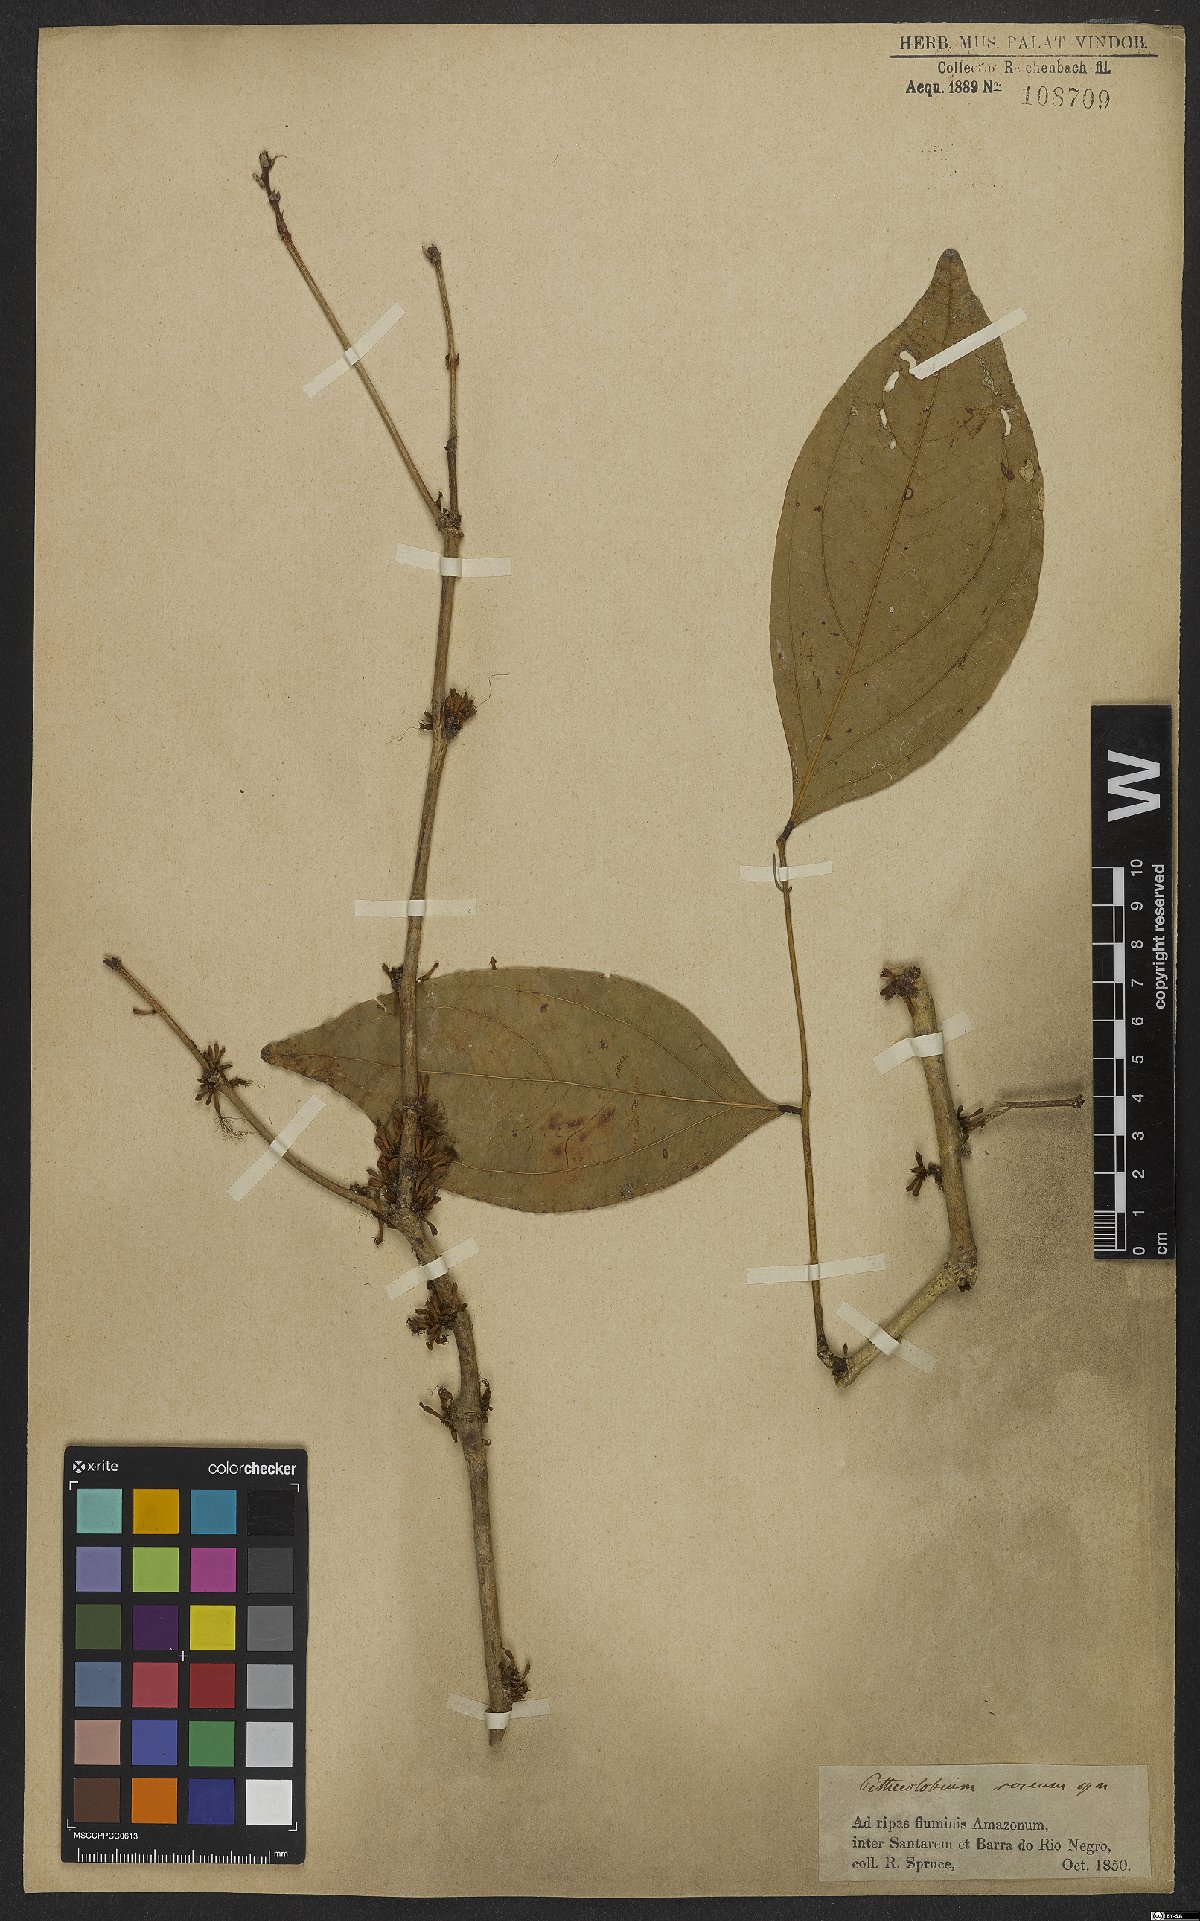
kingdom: Plantae
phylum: Tracheophyta
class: Magnoliopsida
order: Fabales
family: Fabaceae
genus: Zygia
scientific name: Zygia latifolia
